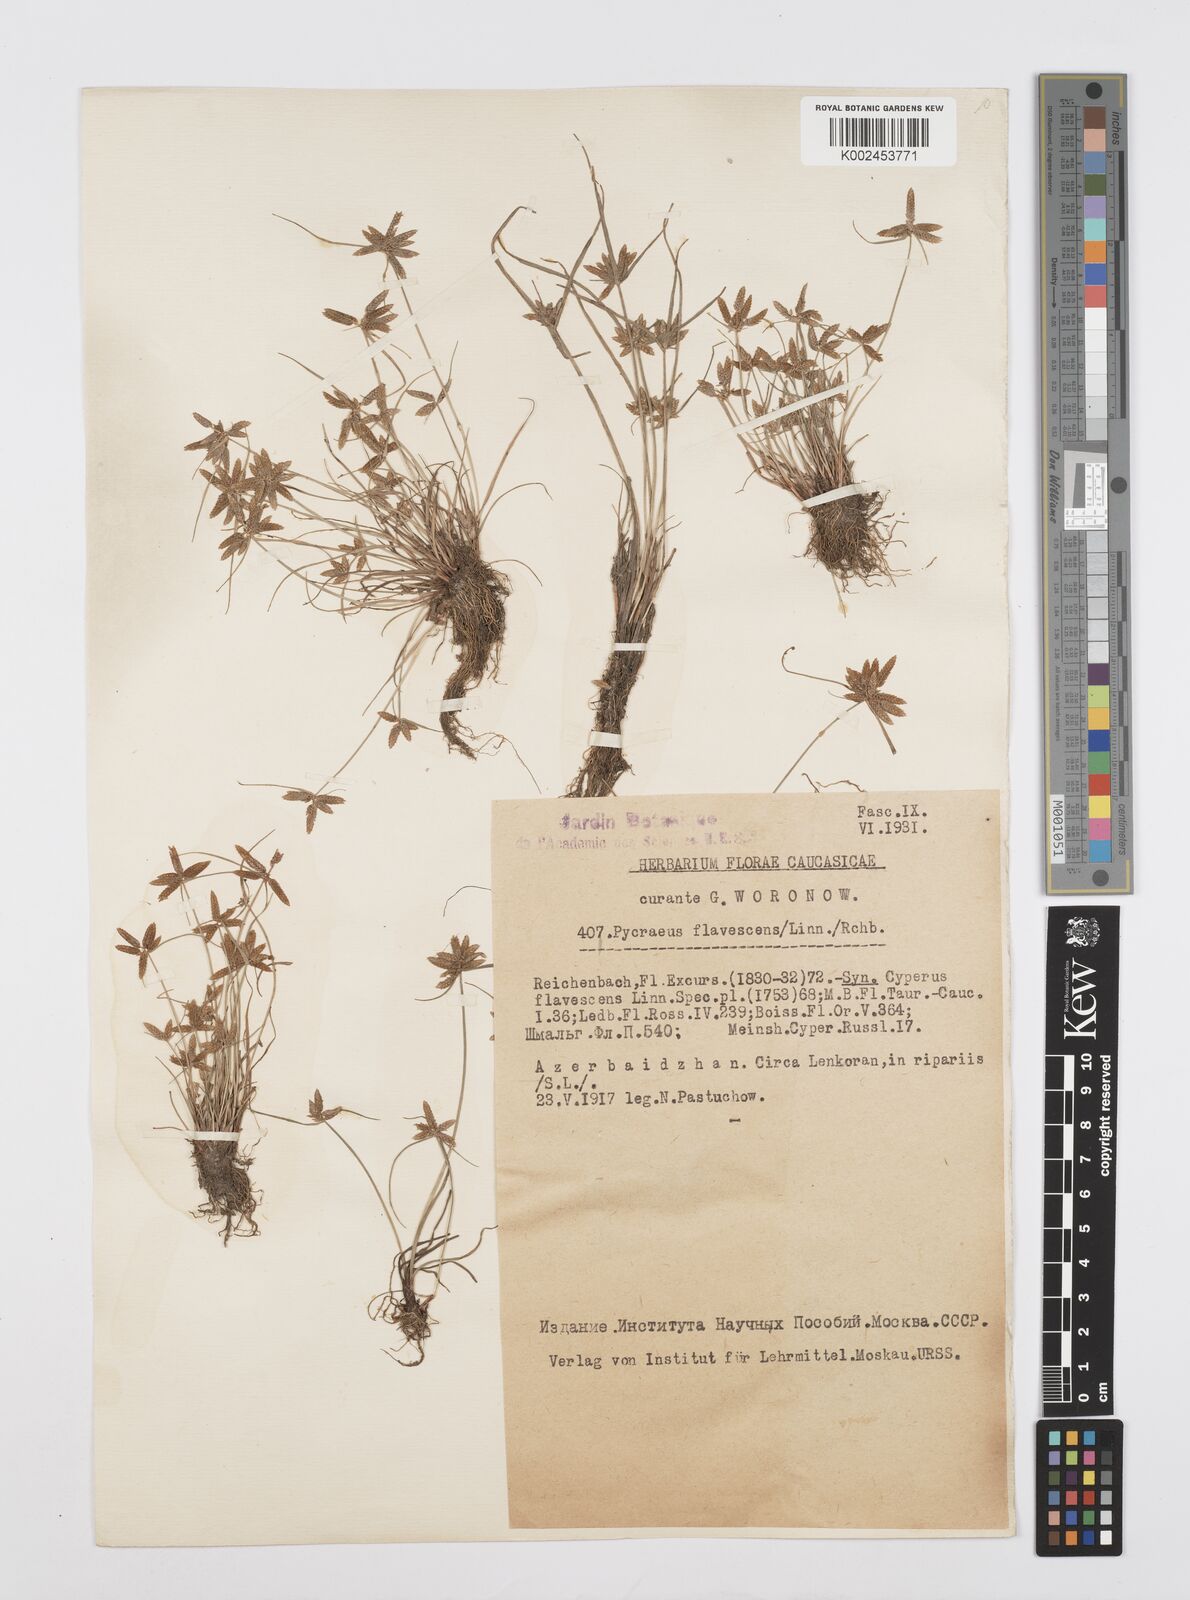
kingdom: Plantae
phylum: Tracheophyta
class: Liliopsida
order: Poales
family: Cyperaceae
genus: Cyperus
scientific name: Cyperus flavescens
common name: Yellow galingale
